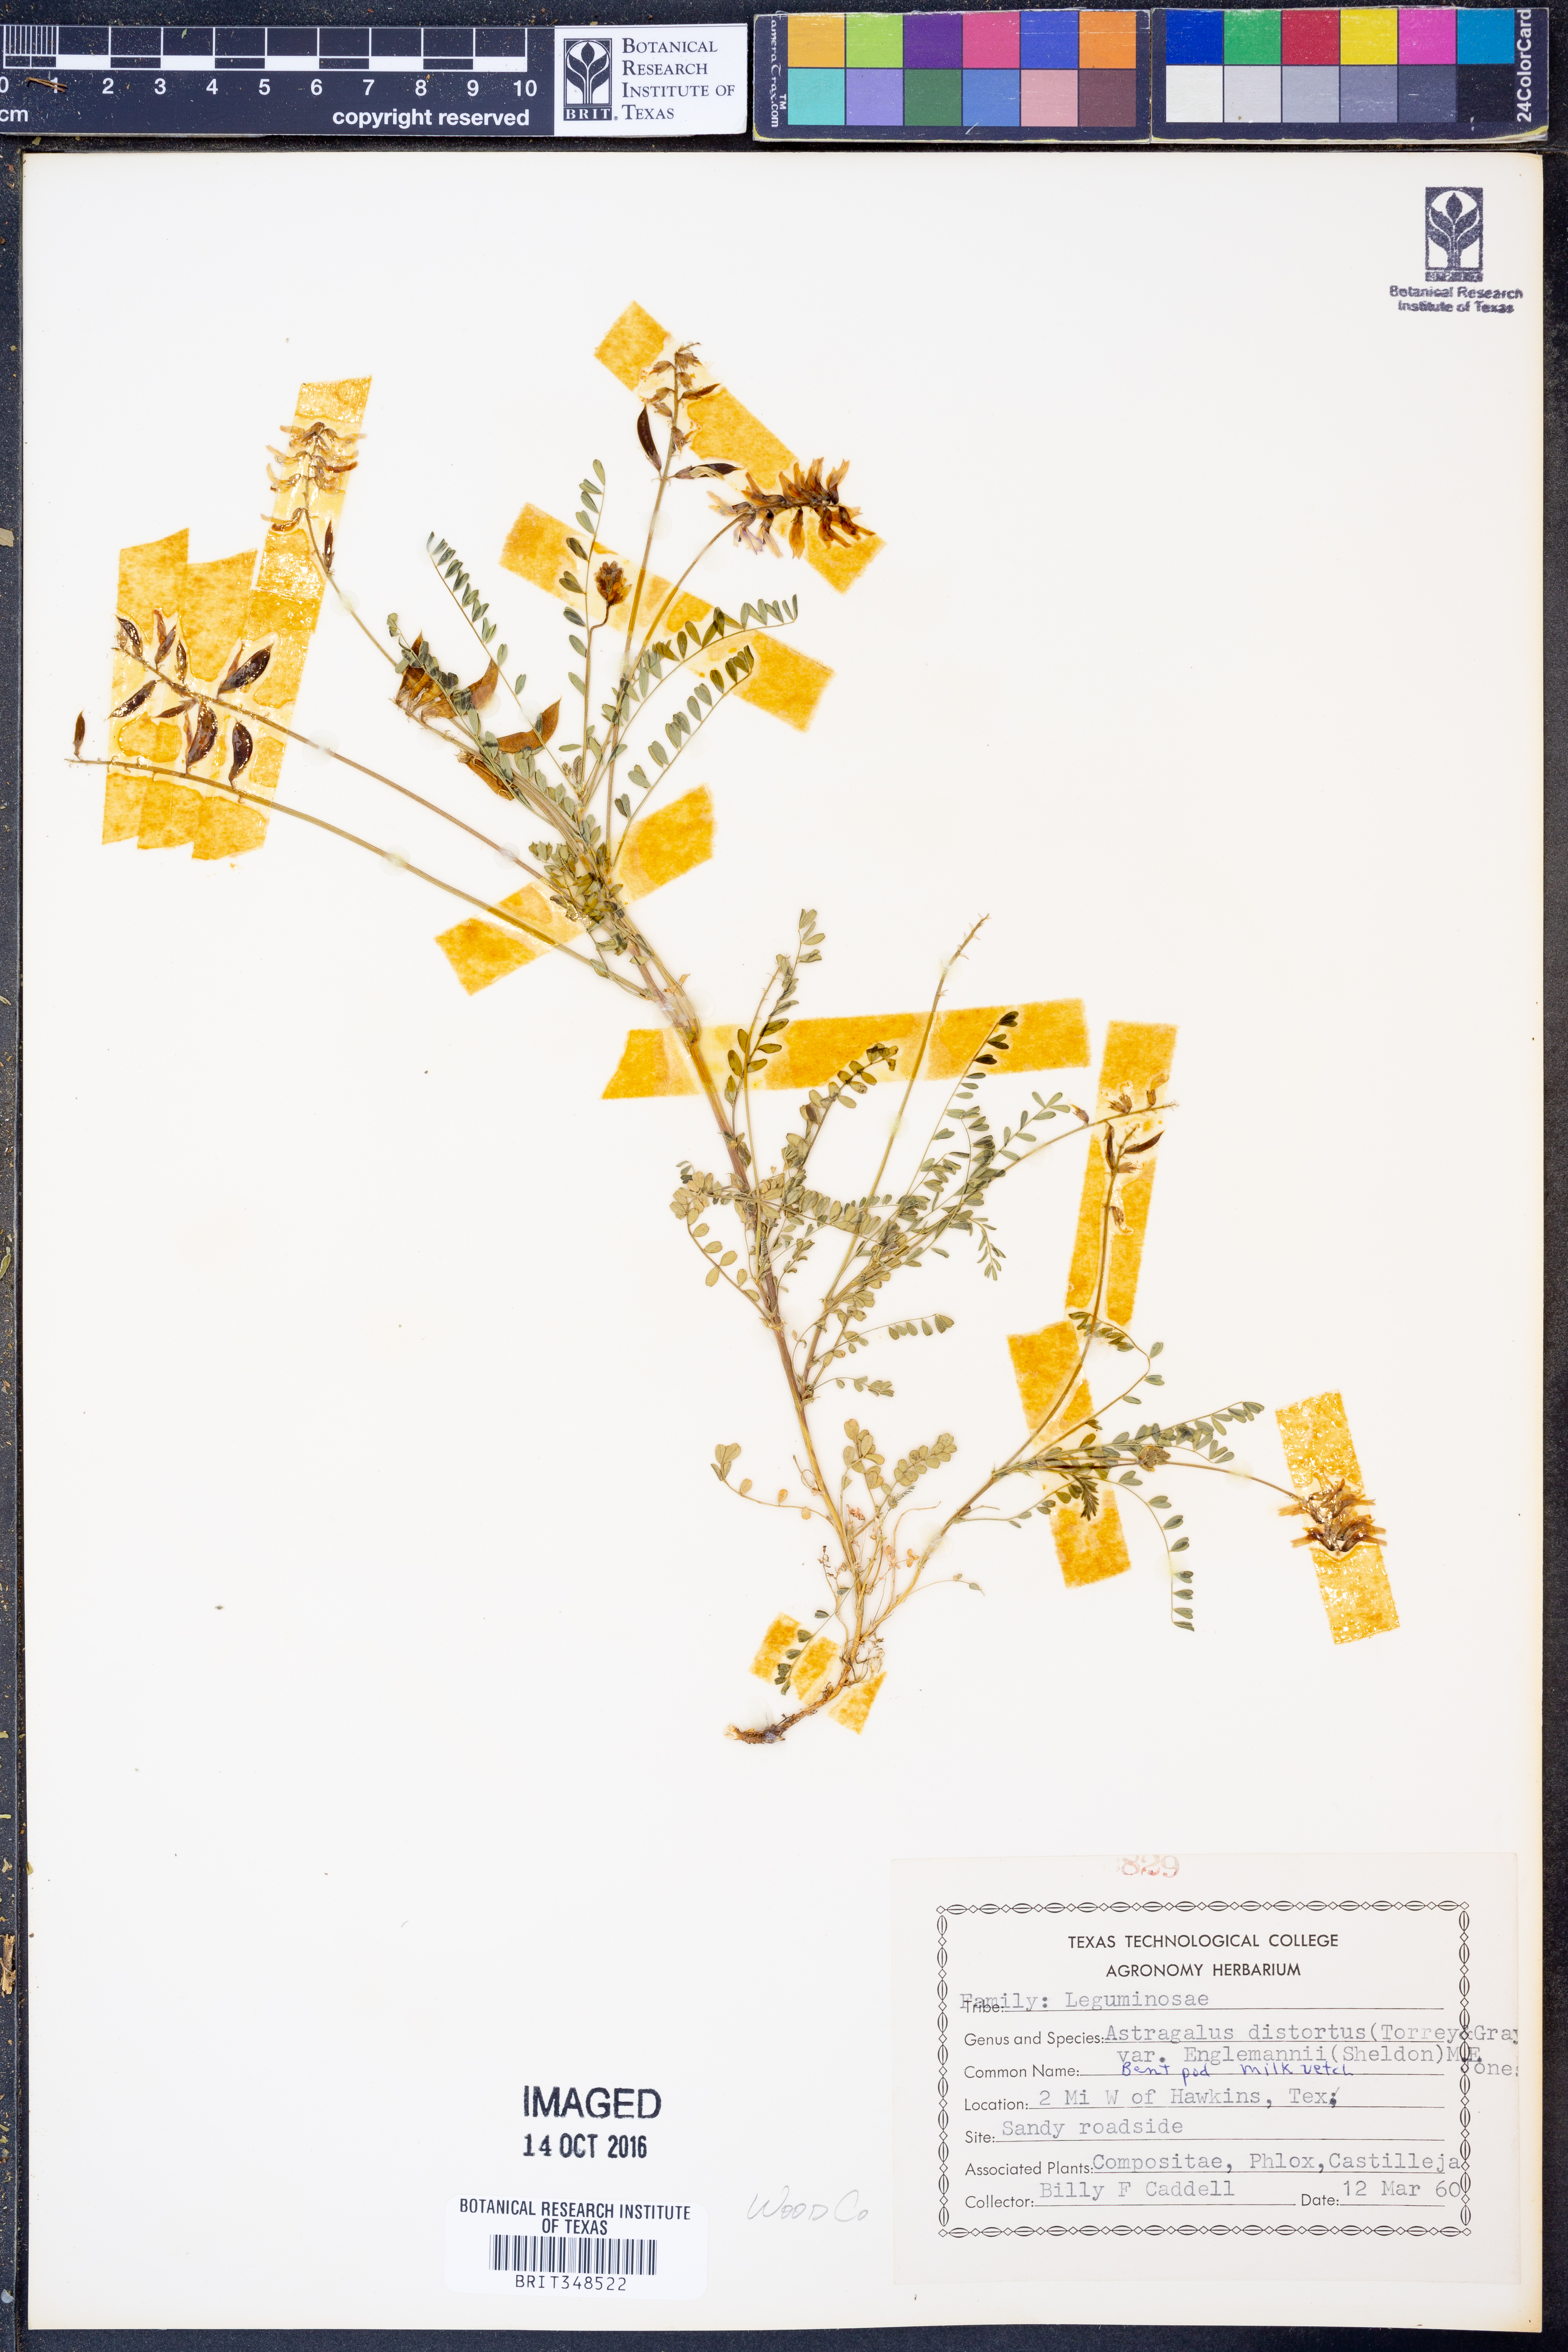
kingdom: Plantae
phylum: Tracheophyta
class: Magnoliopsida
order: Fabales
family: Fabaceae
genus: Astragalus
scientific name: Astragalus distortus
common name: Ozark milk-vetch
